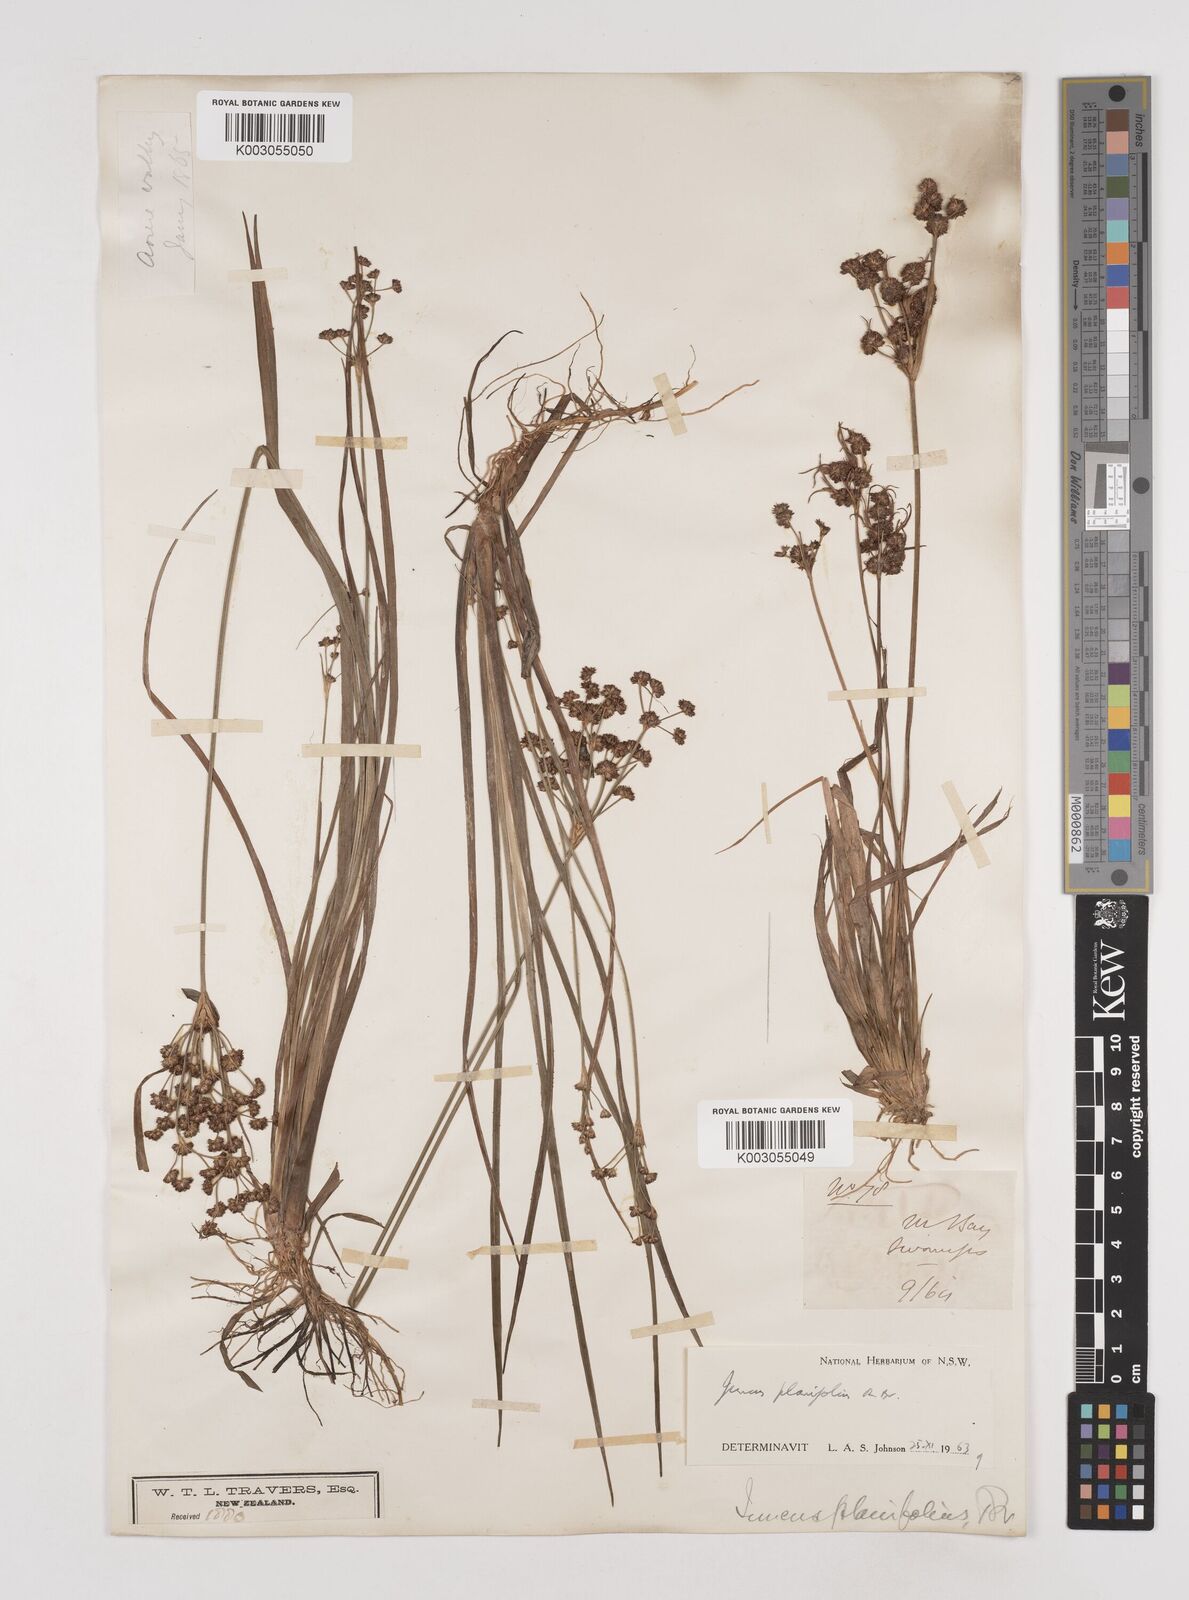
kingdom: Plantae
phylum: Tracheophyta
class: Liliopsida
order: Poales
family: Juncaceae
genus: Juncus
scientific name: Juncus planifolius
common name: Broadleaf rush
